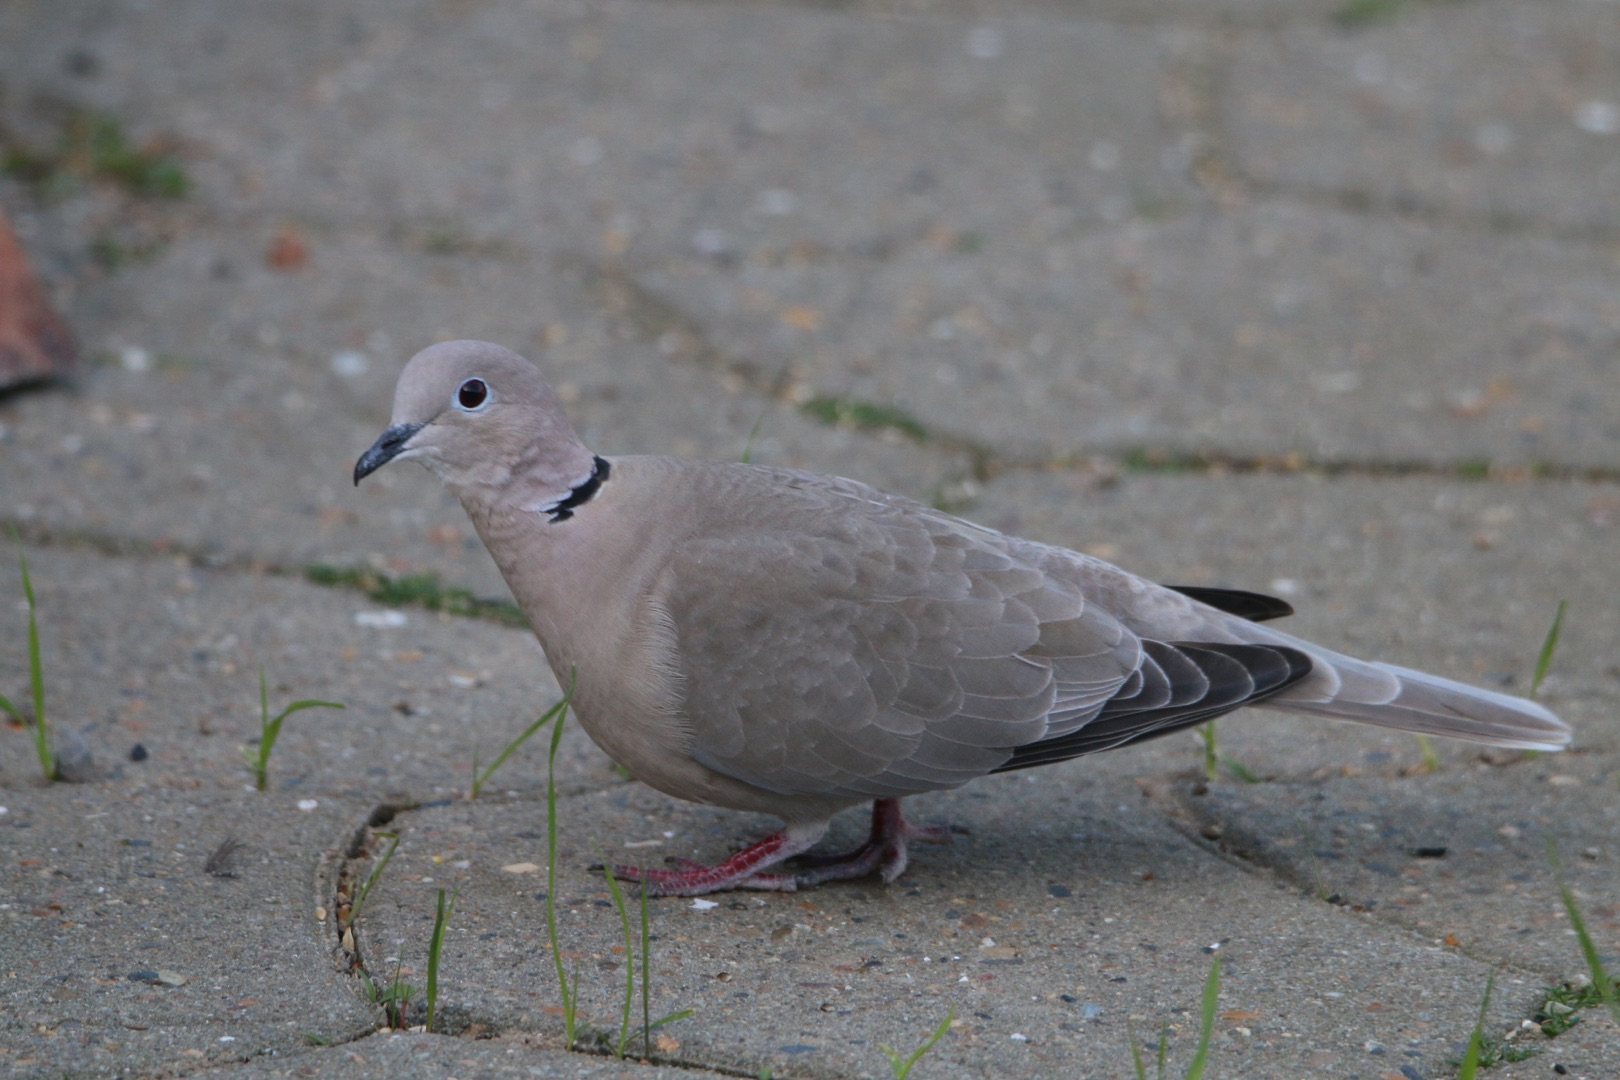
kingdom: Animalia
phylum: Chordata
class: Aves
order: Columbiformes
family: Columbidae
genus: Streptopelia
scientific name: Streptopelia decaocto
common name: Tyrkerdue
